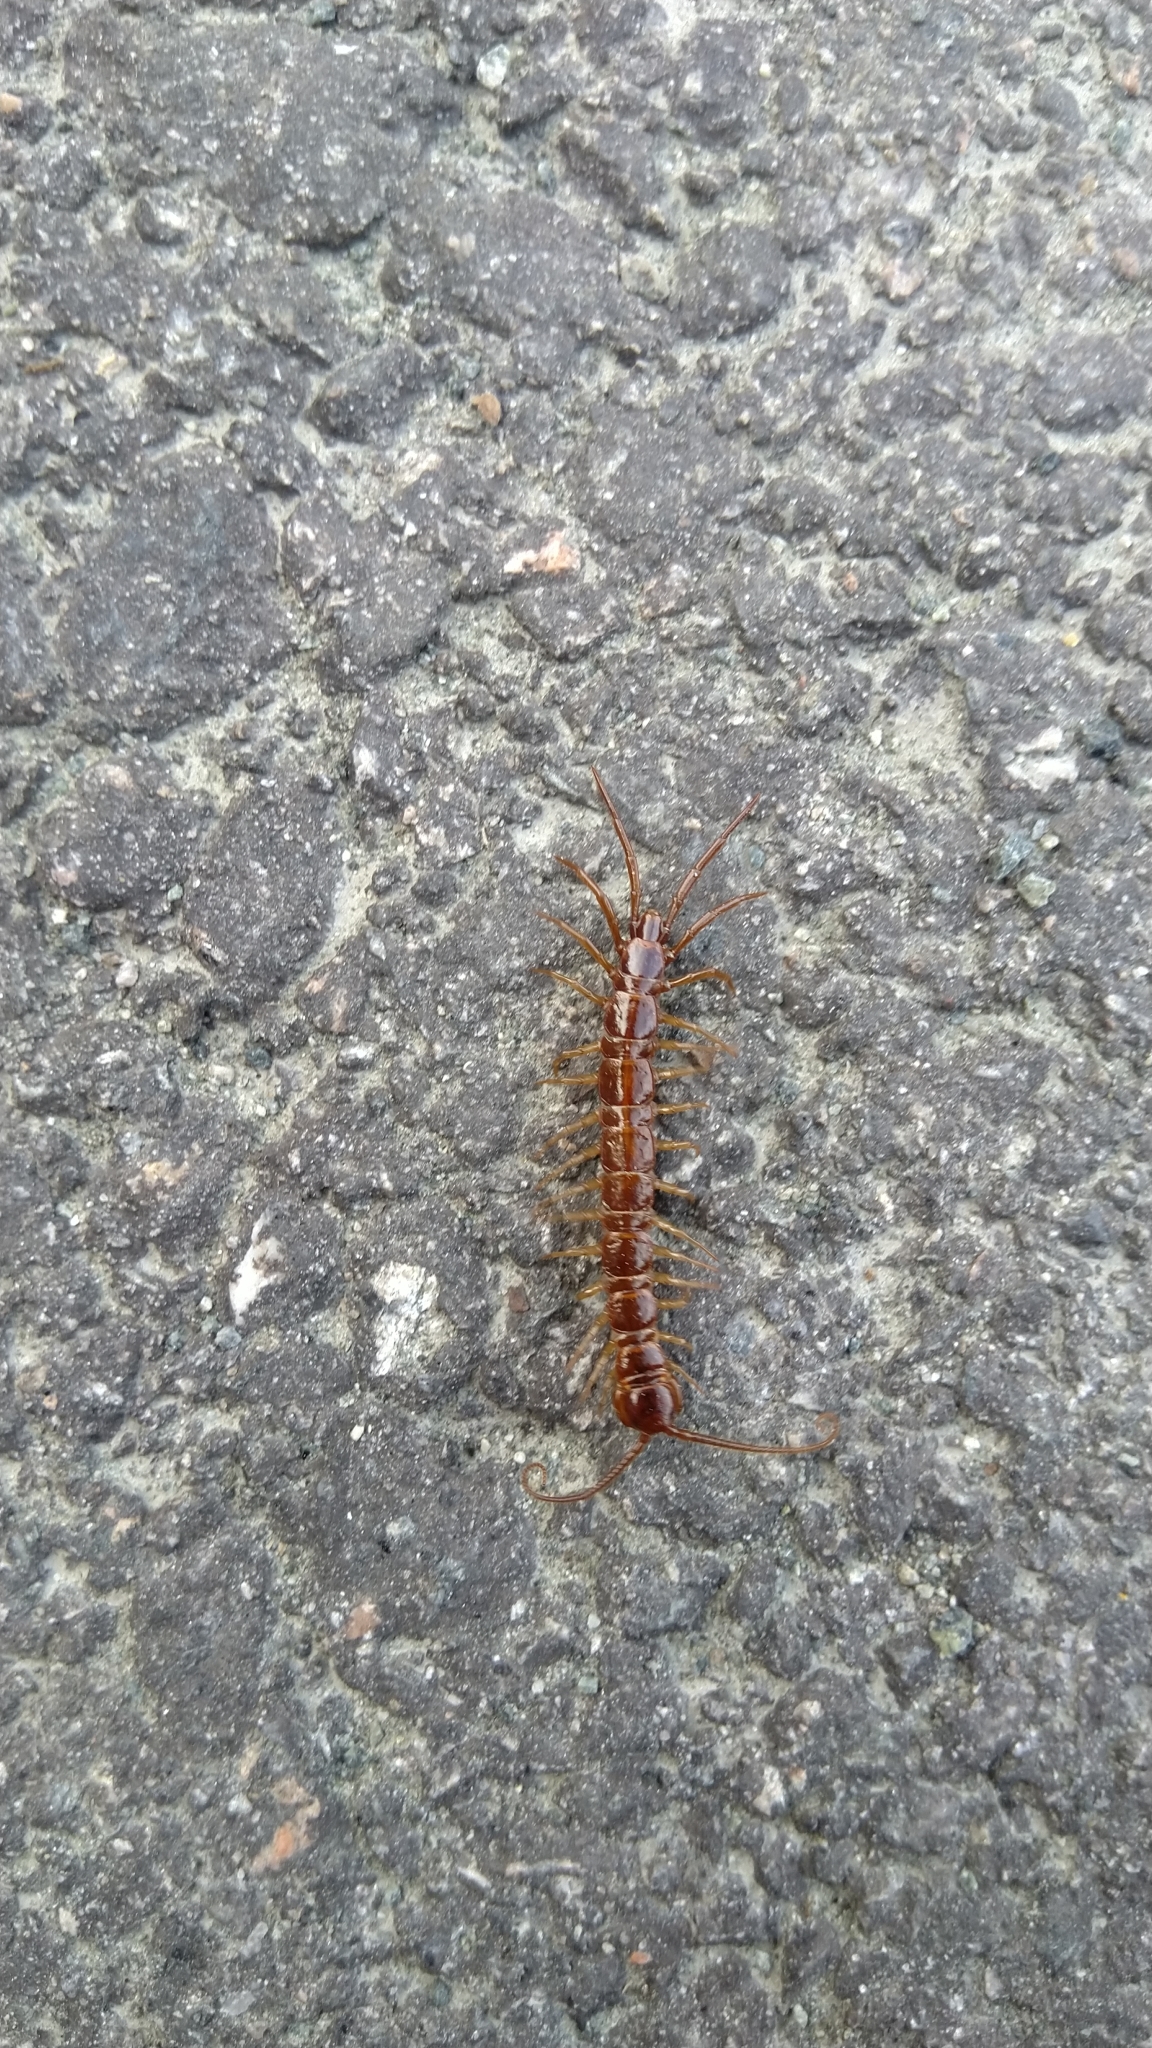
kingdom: Bacteria
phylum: Firmicutes
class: Negativicutes
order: Selenomonadales
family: Selenomonadaceae
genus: Centipeda
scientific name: Centipeda
